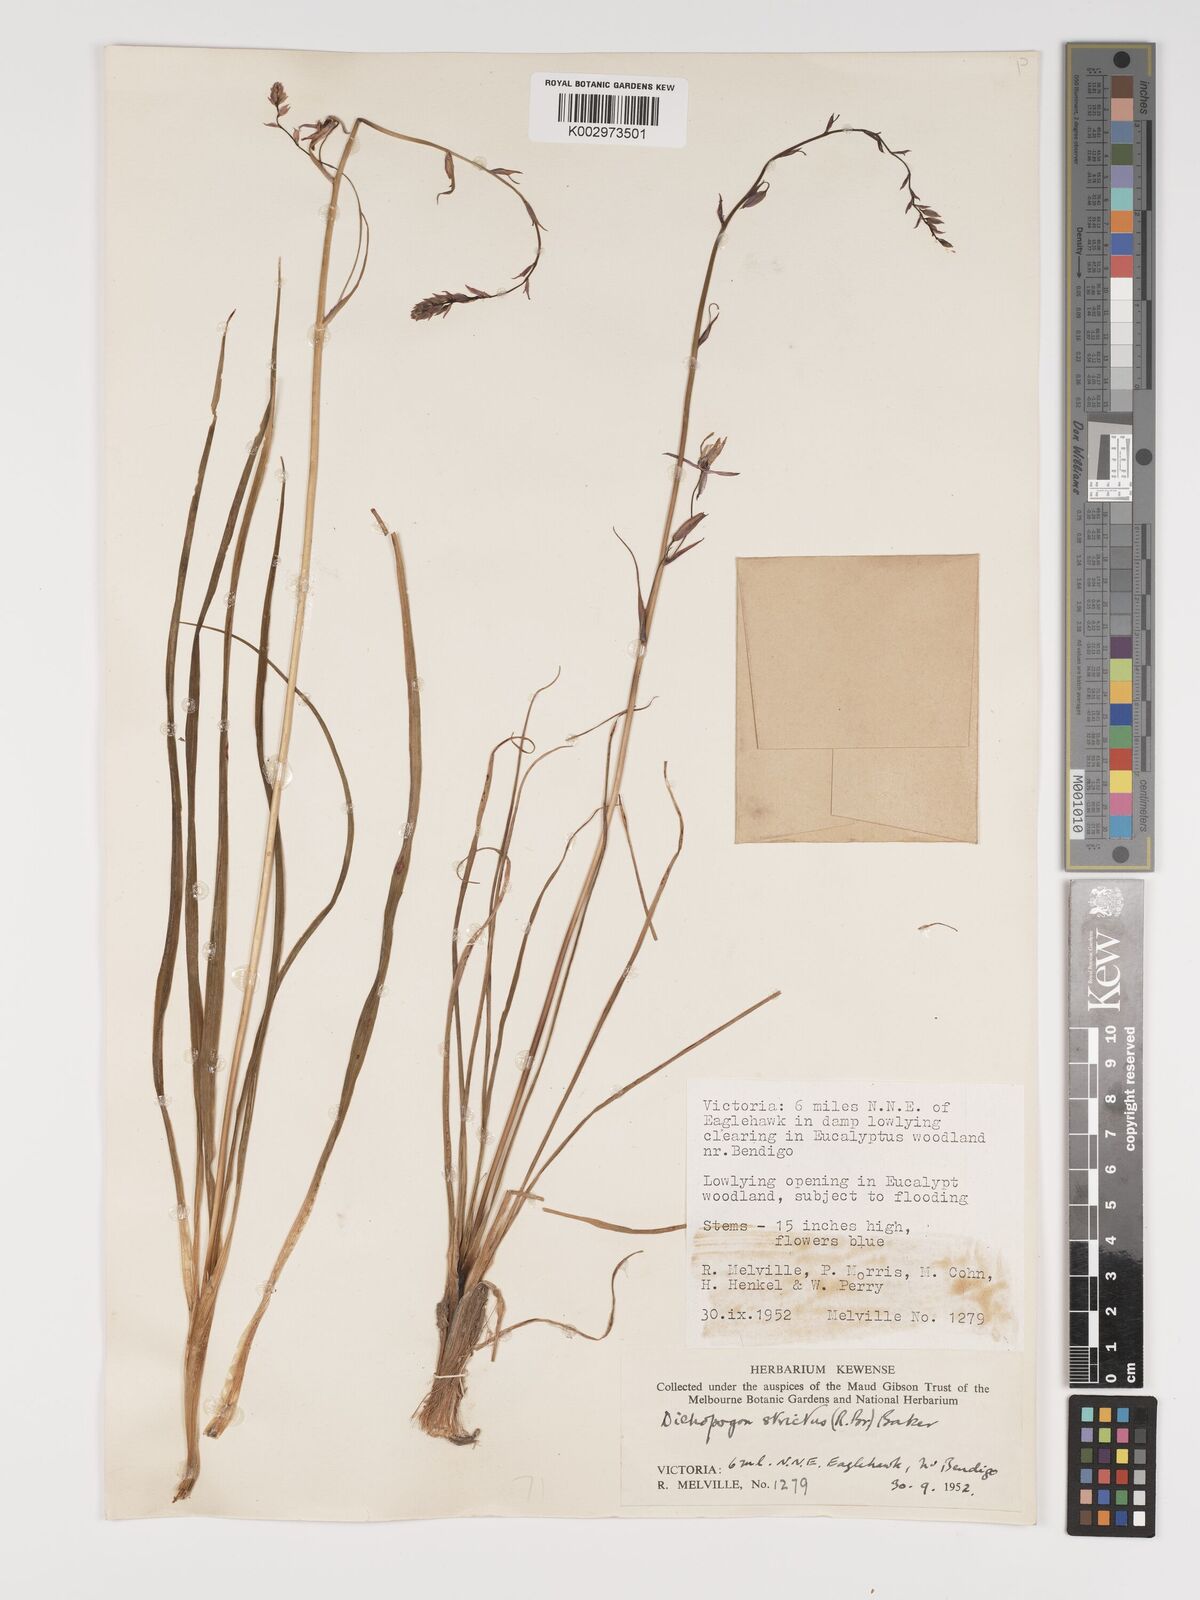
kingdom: Plantae
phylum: Tracheophyta
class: Liliopsida
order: Asparagales
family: Asparagaceae
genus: Arthropodium
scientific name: Arthropodium strictum
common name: Chocolate-lily
